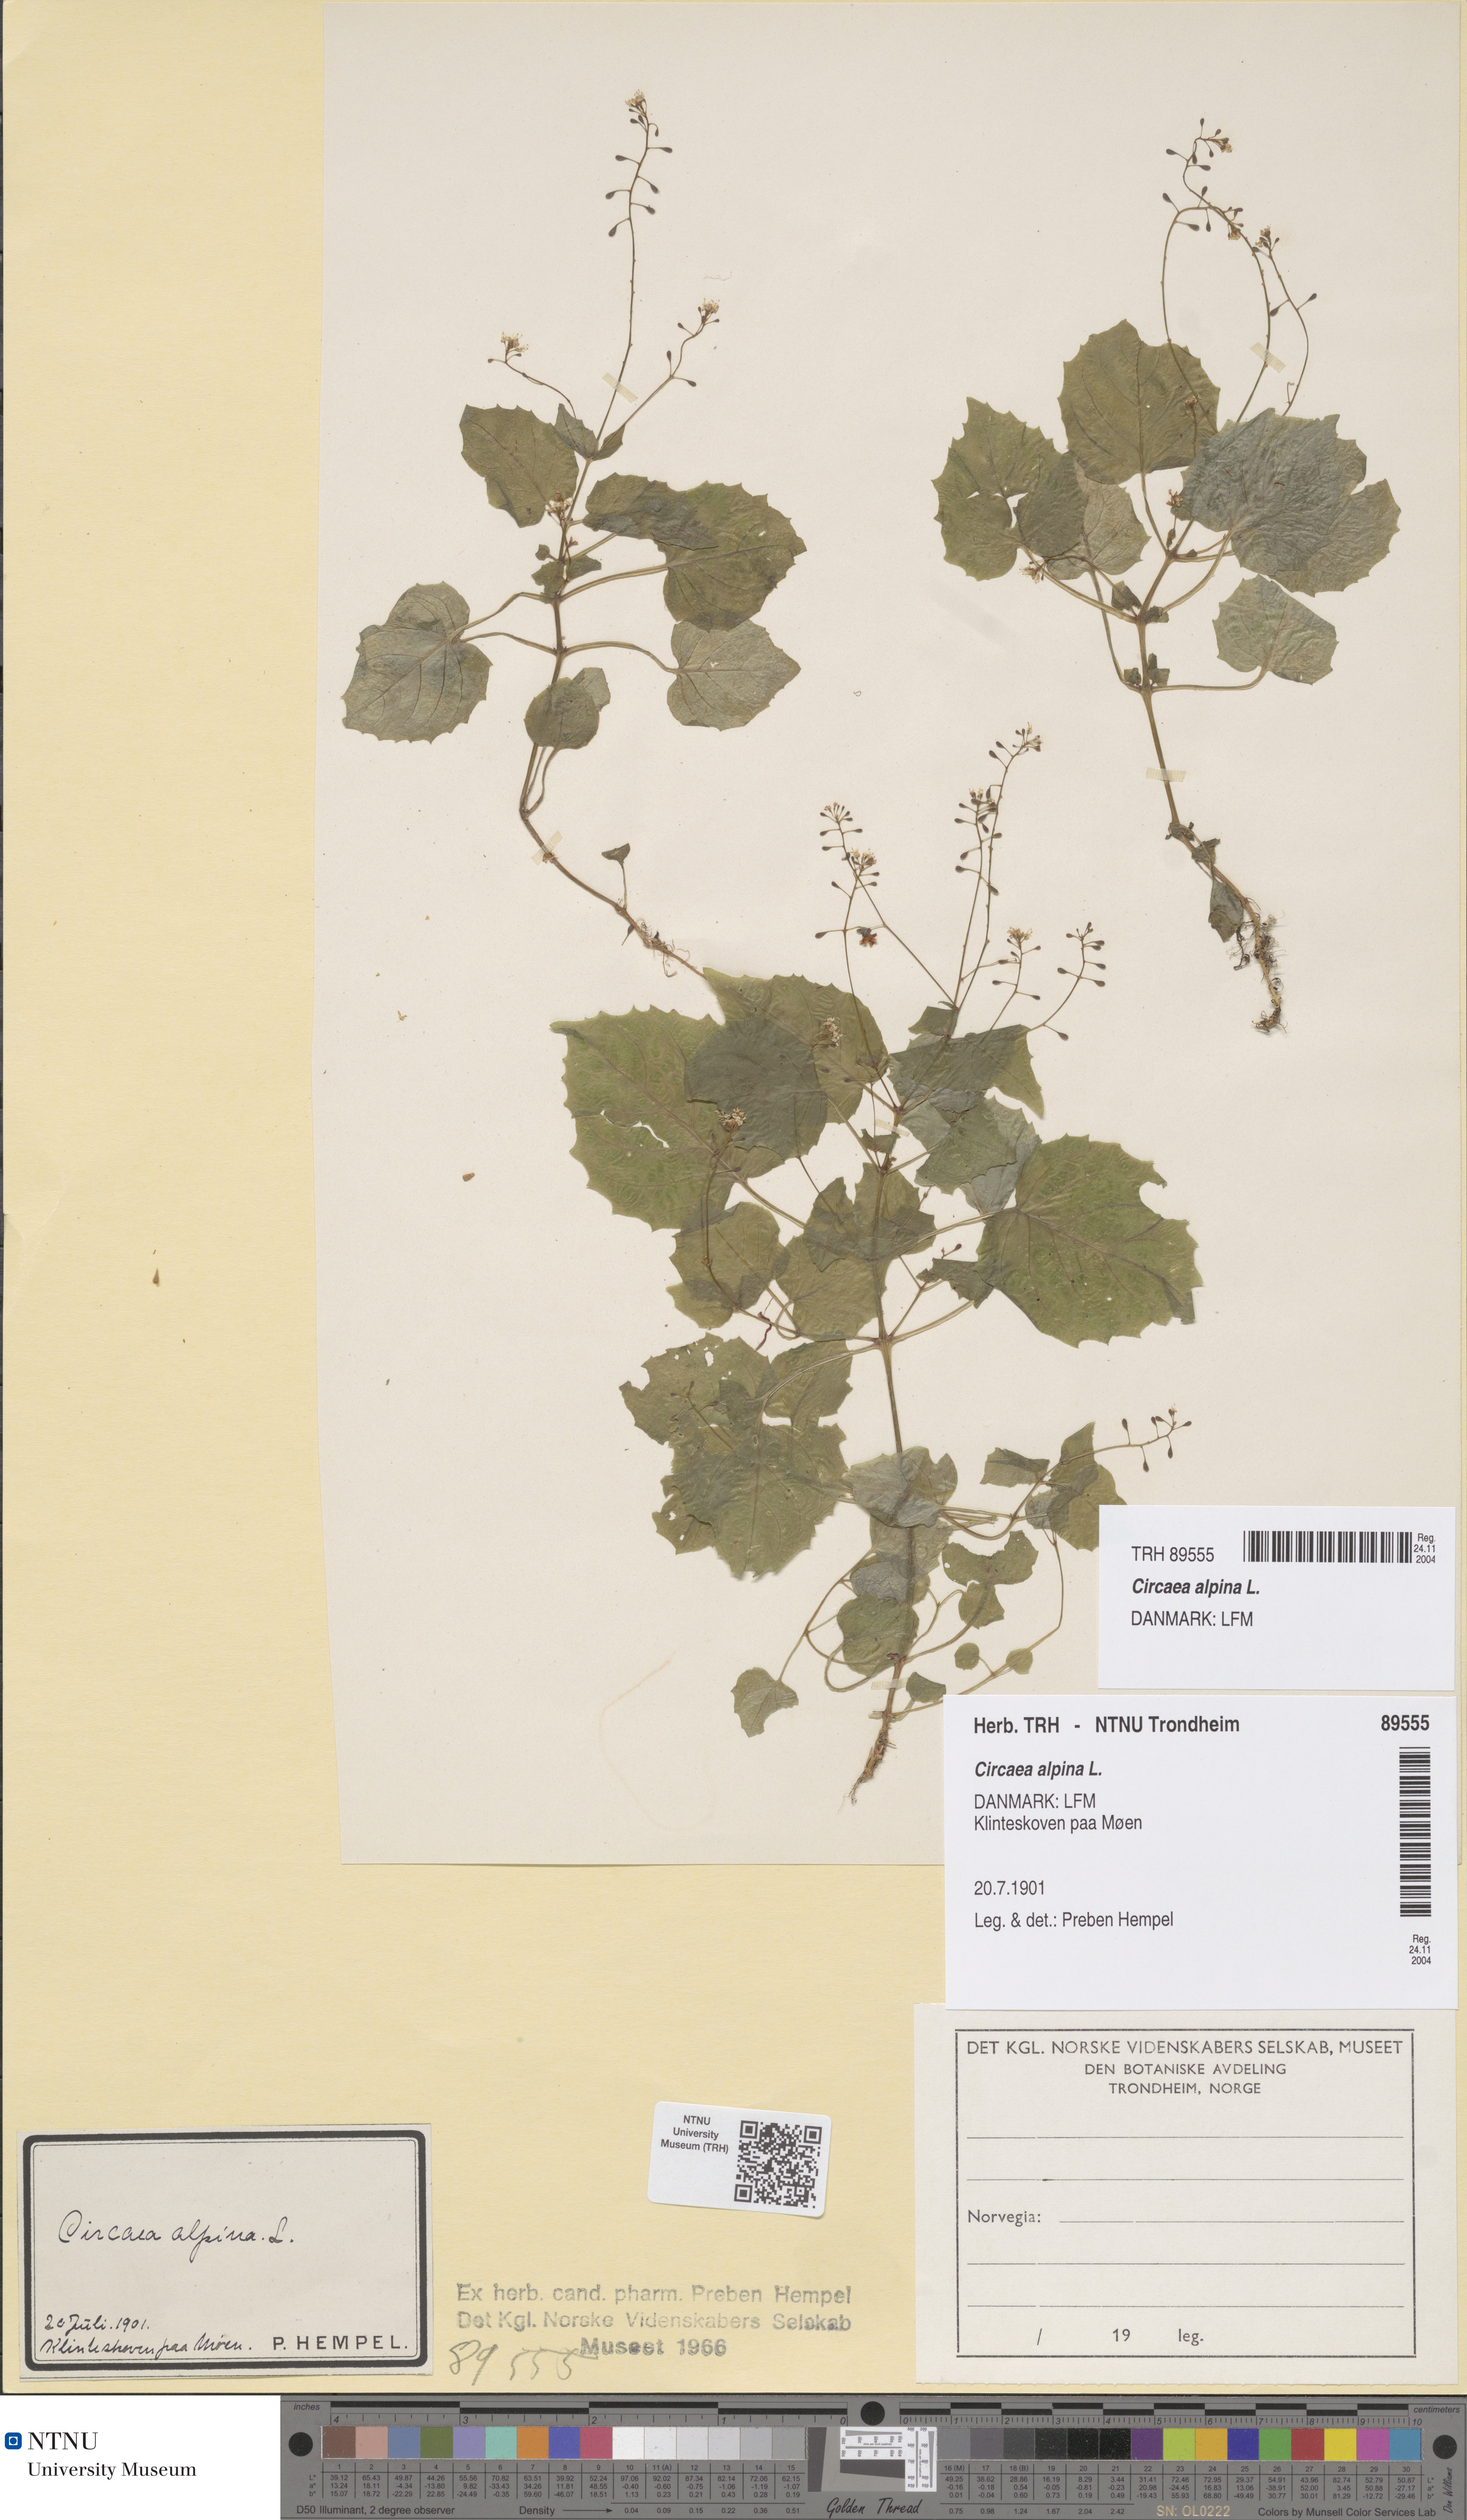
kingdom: Plantae
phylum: Tracheophyta
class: Magnoliopsida
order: Myrtales
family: Onagraceae
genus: Circaea
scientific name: Circaea alpina
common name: Alpine enchanter's-nightshade
